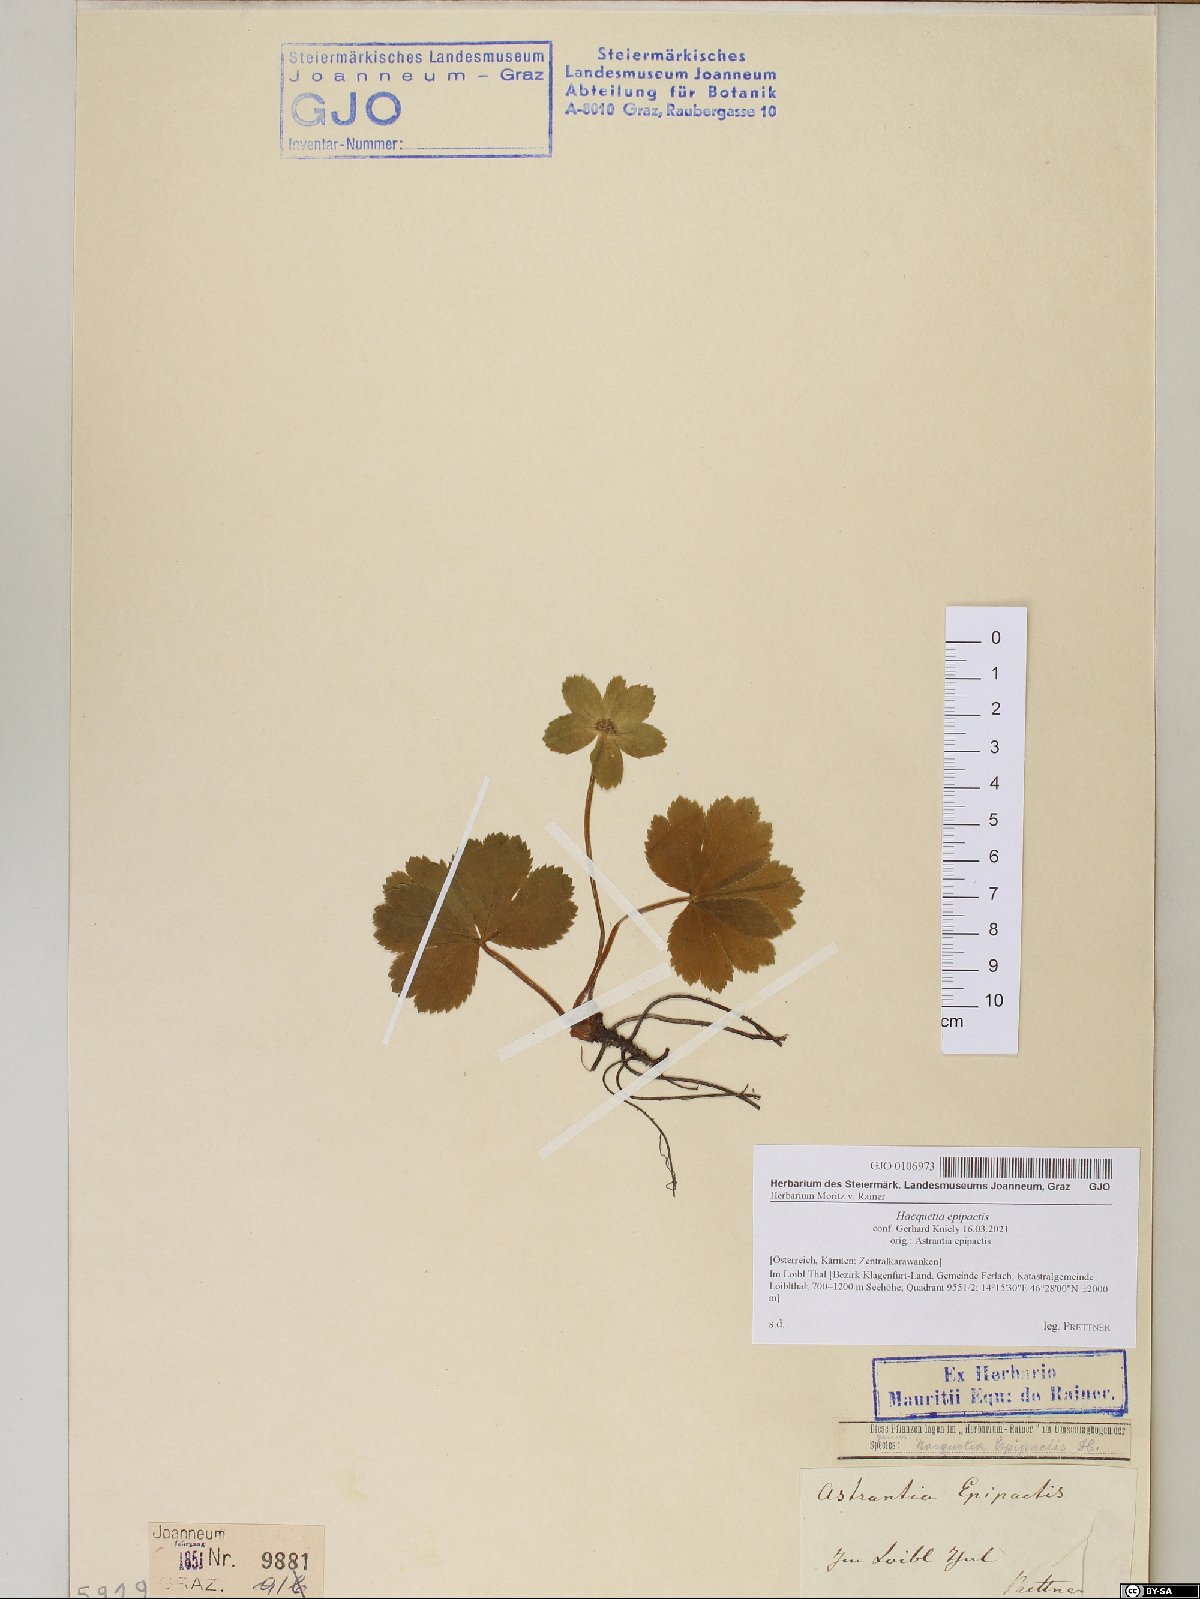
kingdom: Plantae
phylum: Tracheophyta
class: Magnoliopsida
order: Apiales
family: Apiaceae
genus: Sanicula
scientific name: Sanicula epipactis
